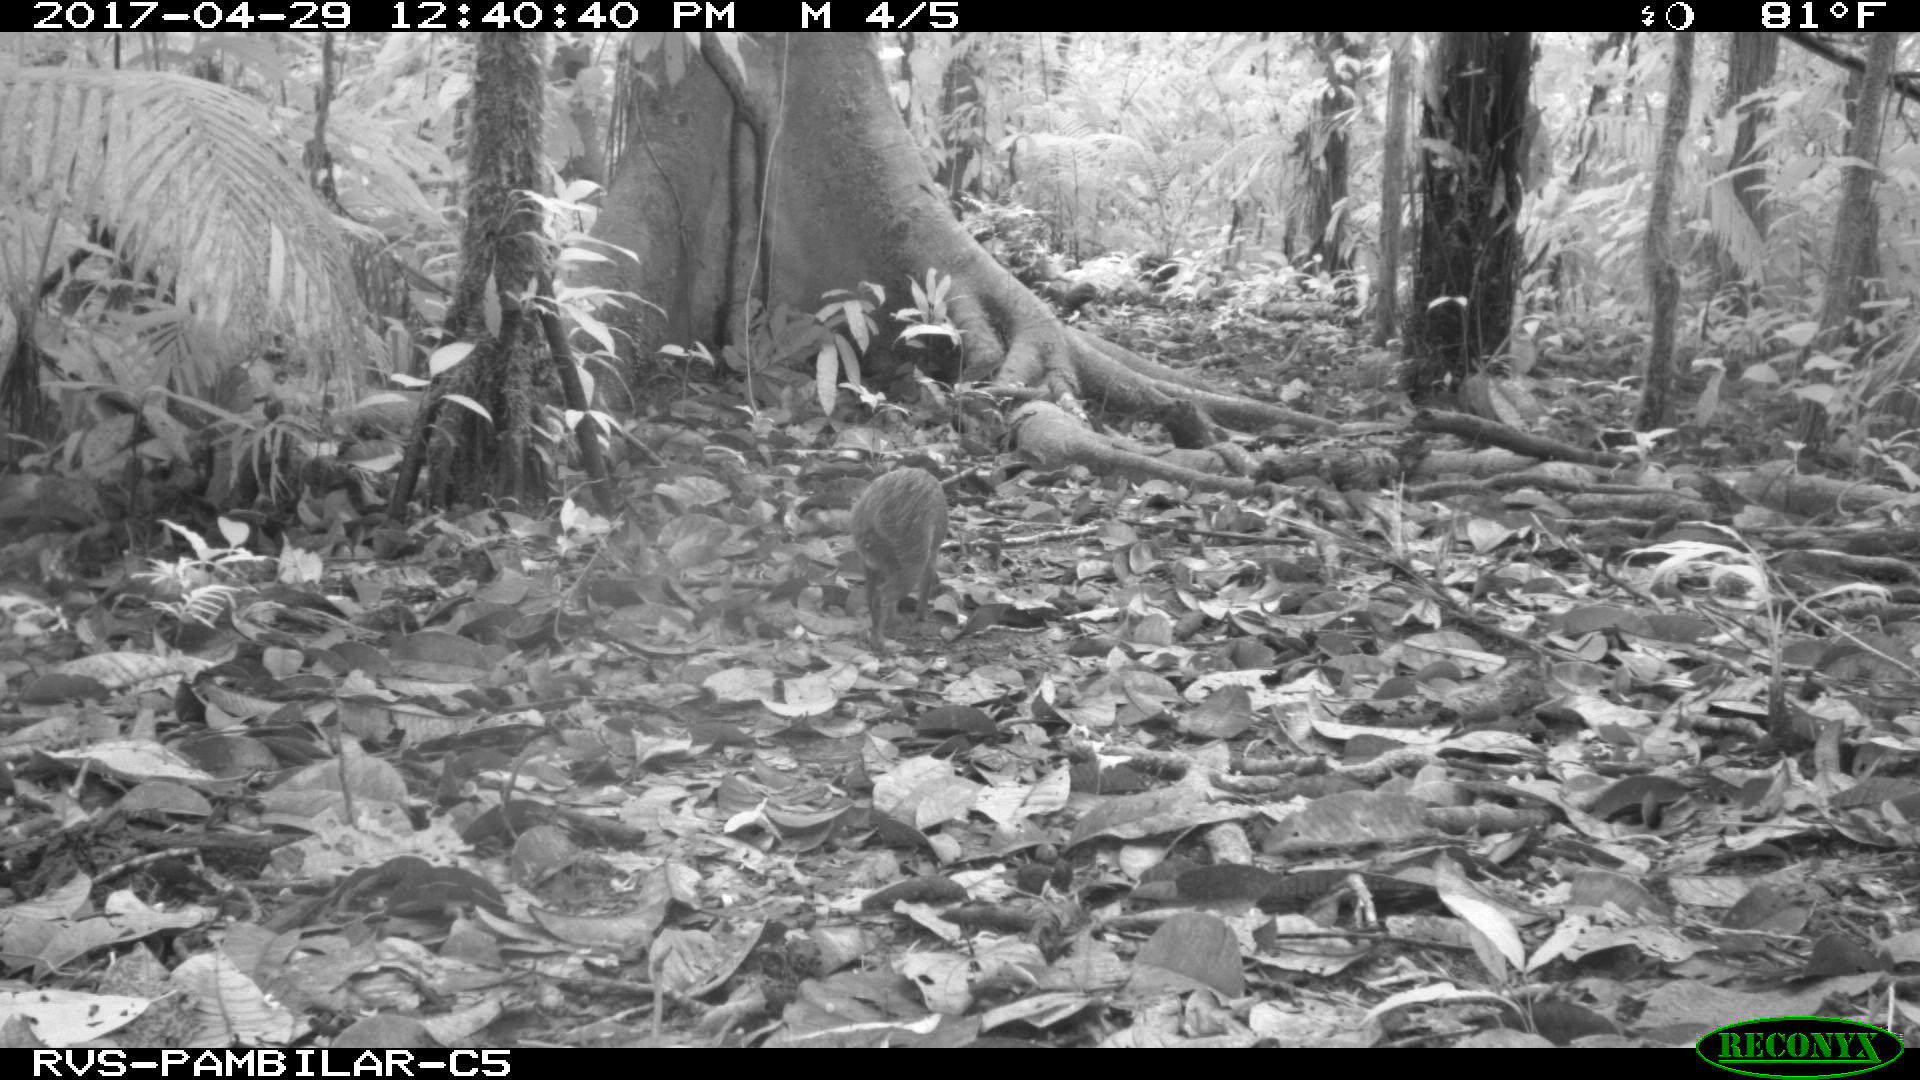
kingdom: Animalia
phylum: Chordata
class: Mammalia
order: Rodentia
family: Dasyproctidae
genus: Dasyprocta
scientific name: Dasyprocta punctata
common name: Central american agouti
